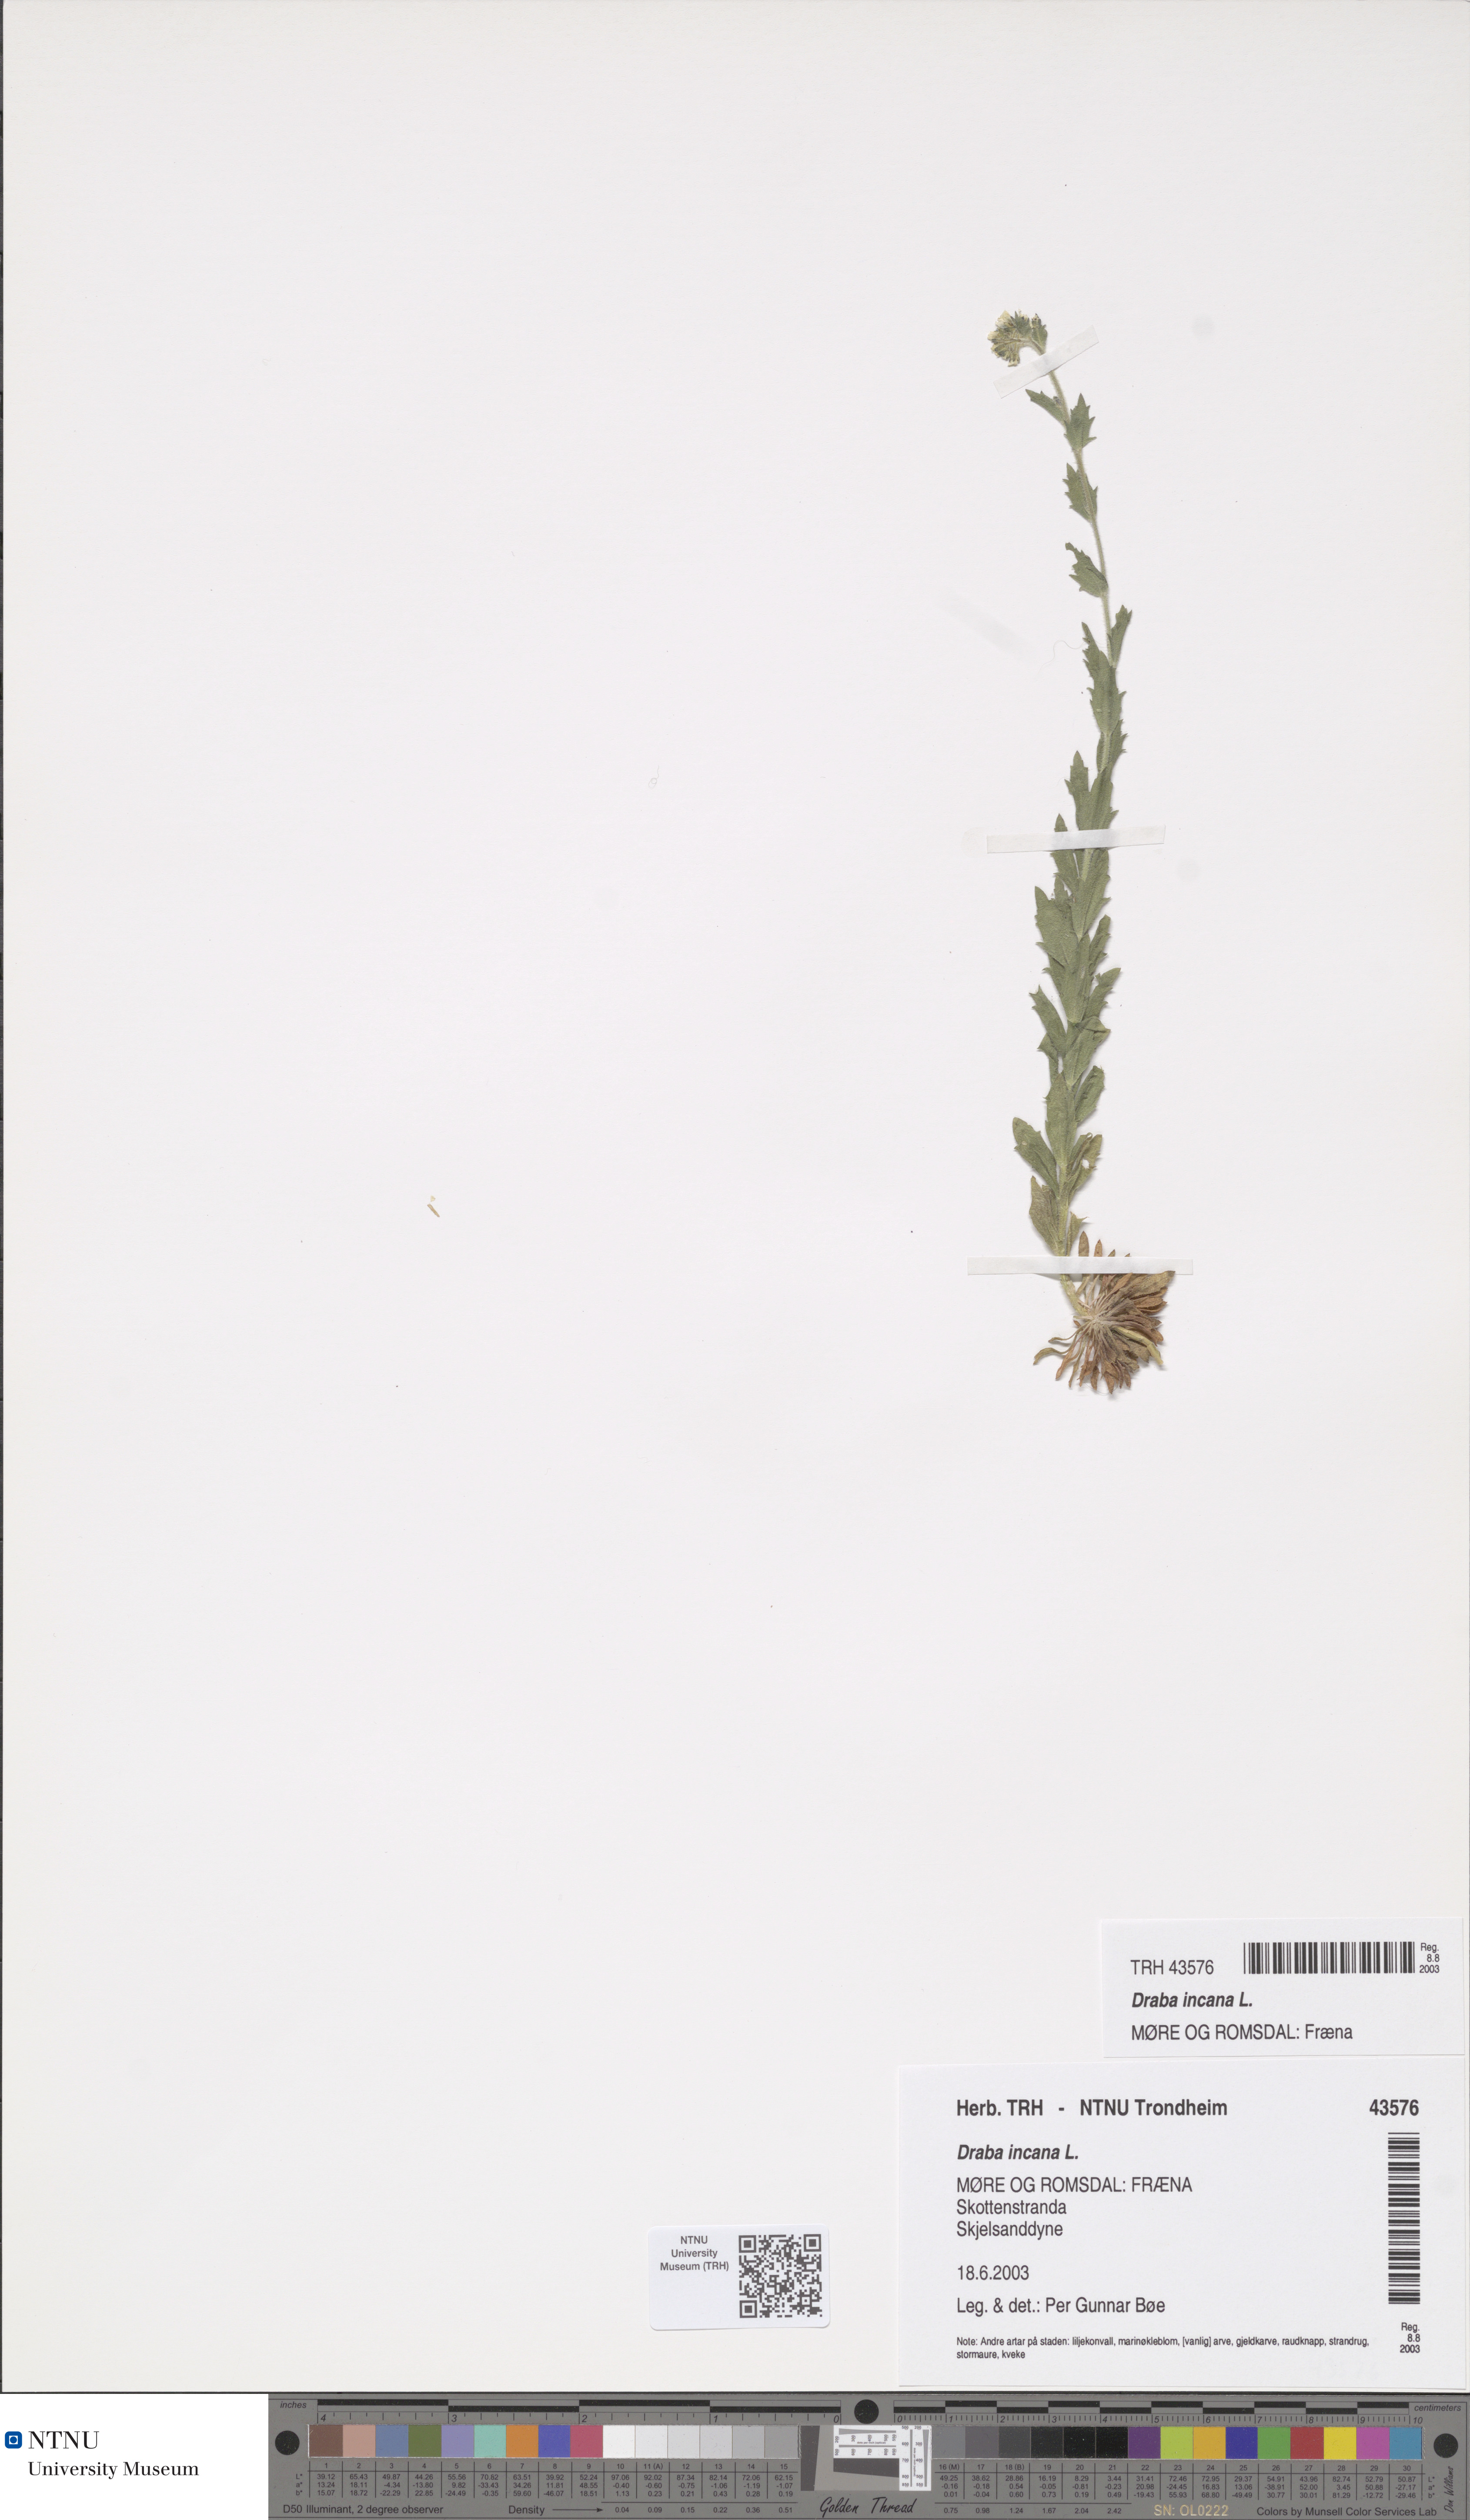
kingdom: Plantae
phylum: Tracheophyta
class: Magnoliopsida
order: Brassicales
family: Brassicaceae
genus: Draba
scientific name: Draba incana
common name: Hoary whitlow-grass
